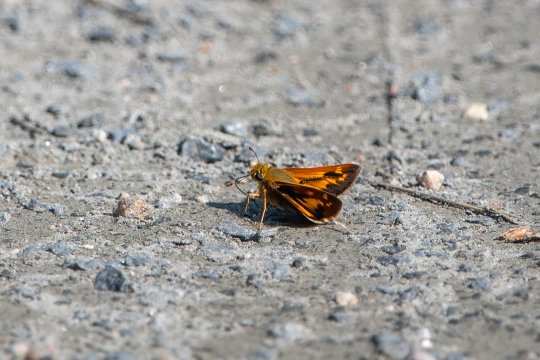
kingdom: Animalia
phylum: Arthropoda
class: Insecta
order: Lepidoptera
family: Hesperiidae
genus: Hesperia
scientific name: Hesperia leonardus
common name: Leonard's Skipper
